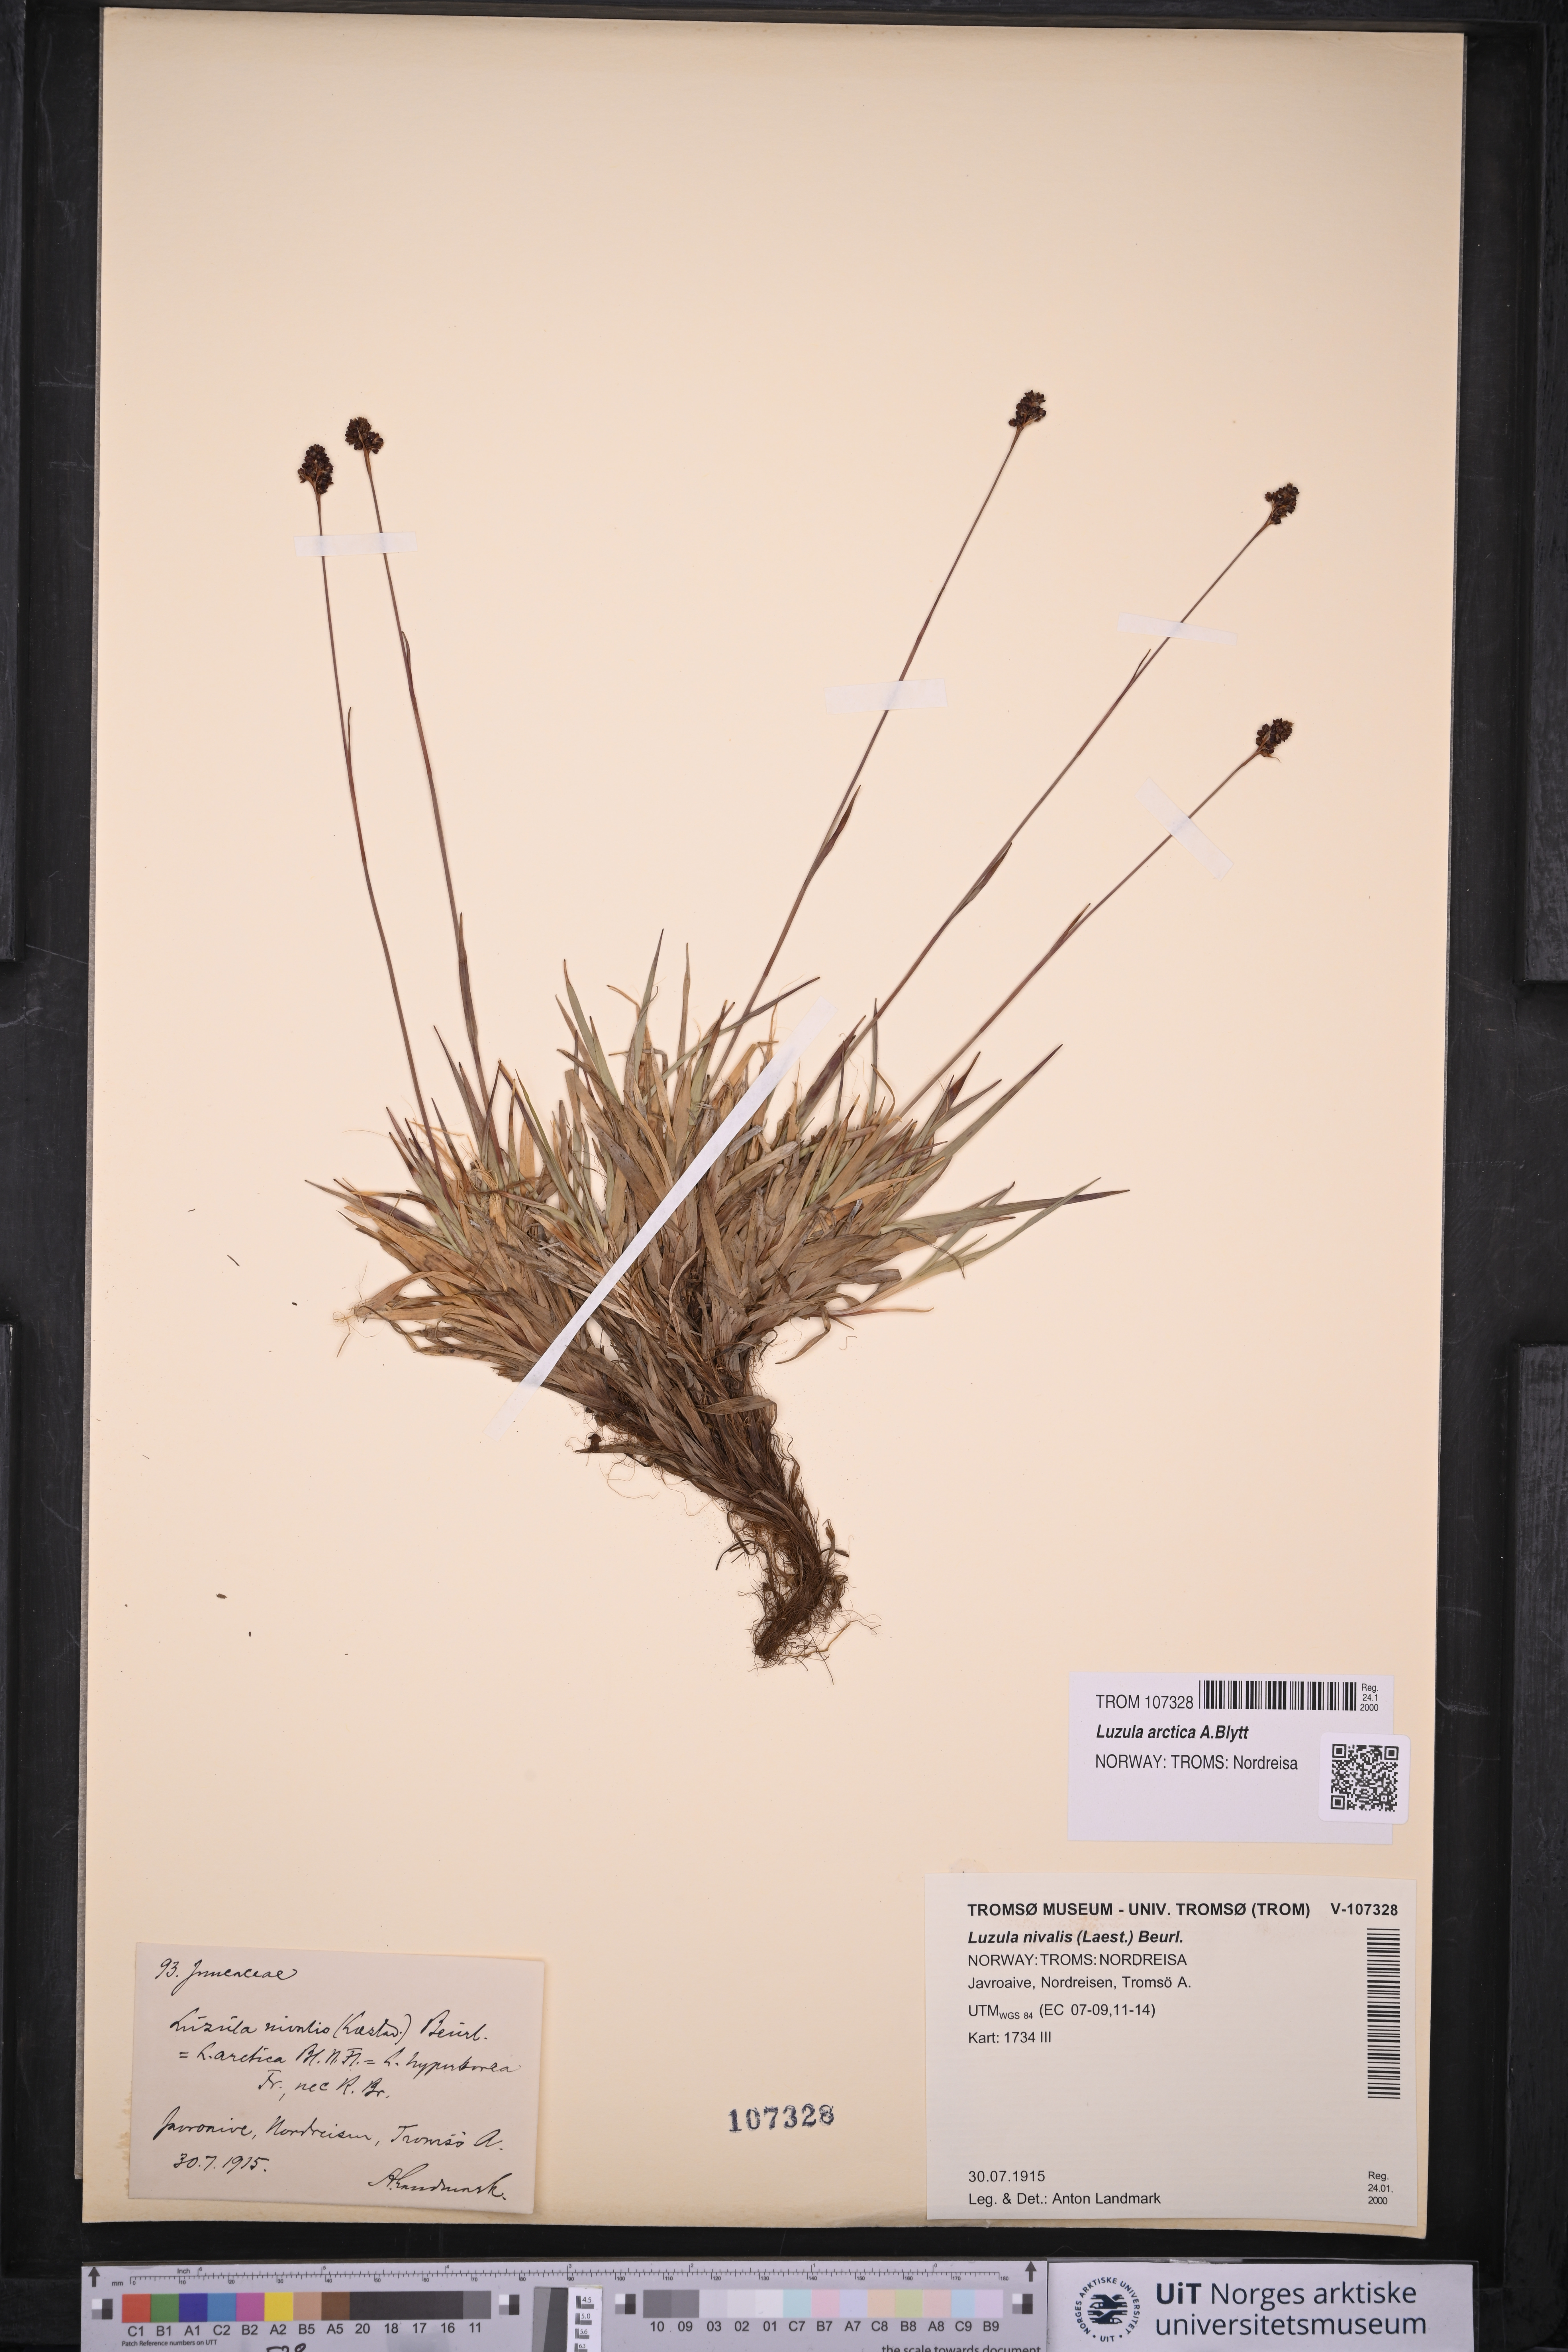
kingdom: Plantae
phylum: Tracheophyta
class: Liliopsida
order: Poales
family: Juncaceae
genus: Luzula
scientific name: Luzula nivalis
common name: Arctic woodrush
